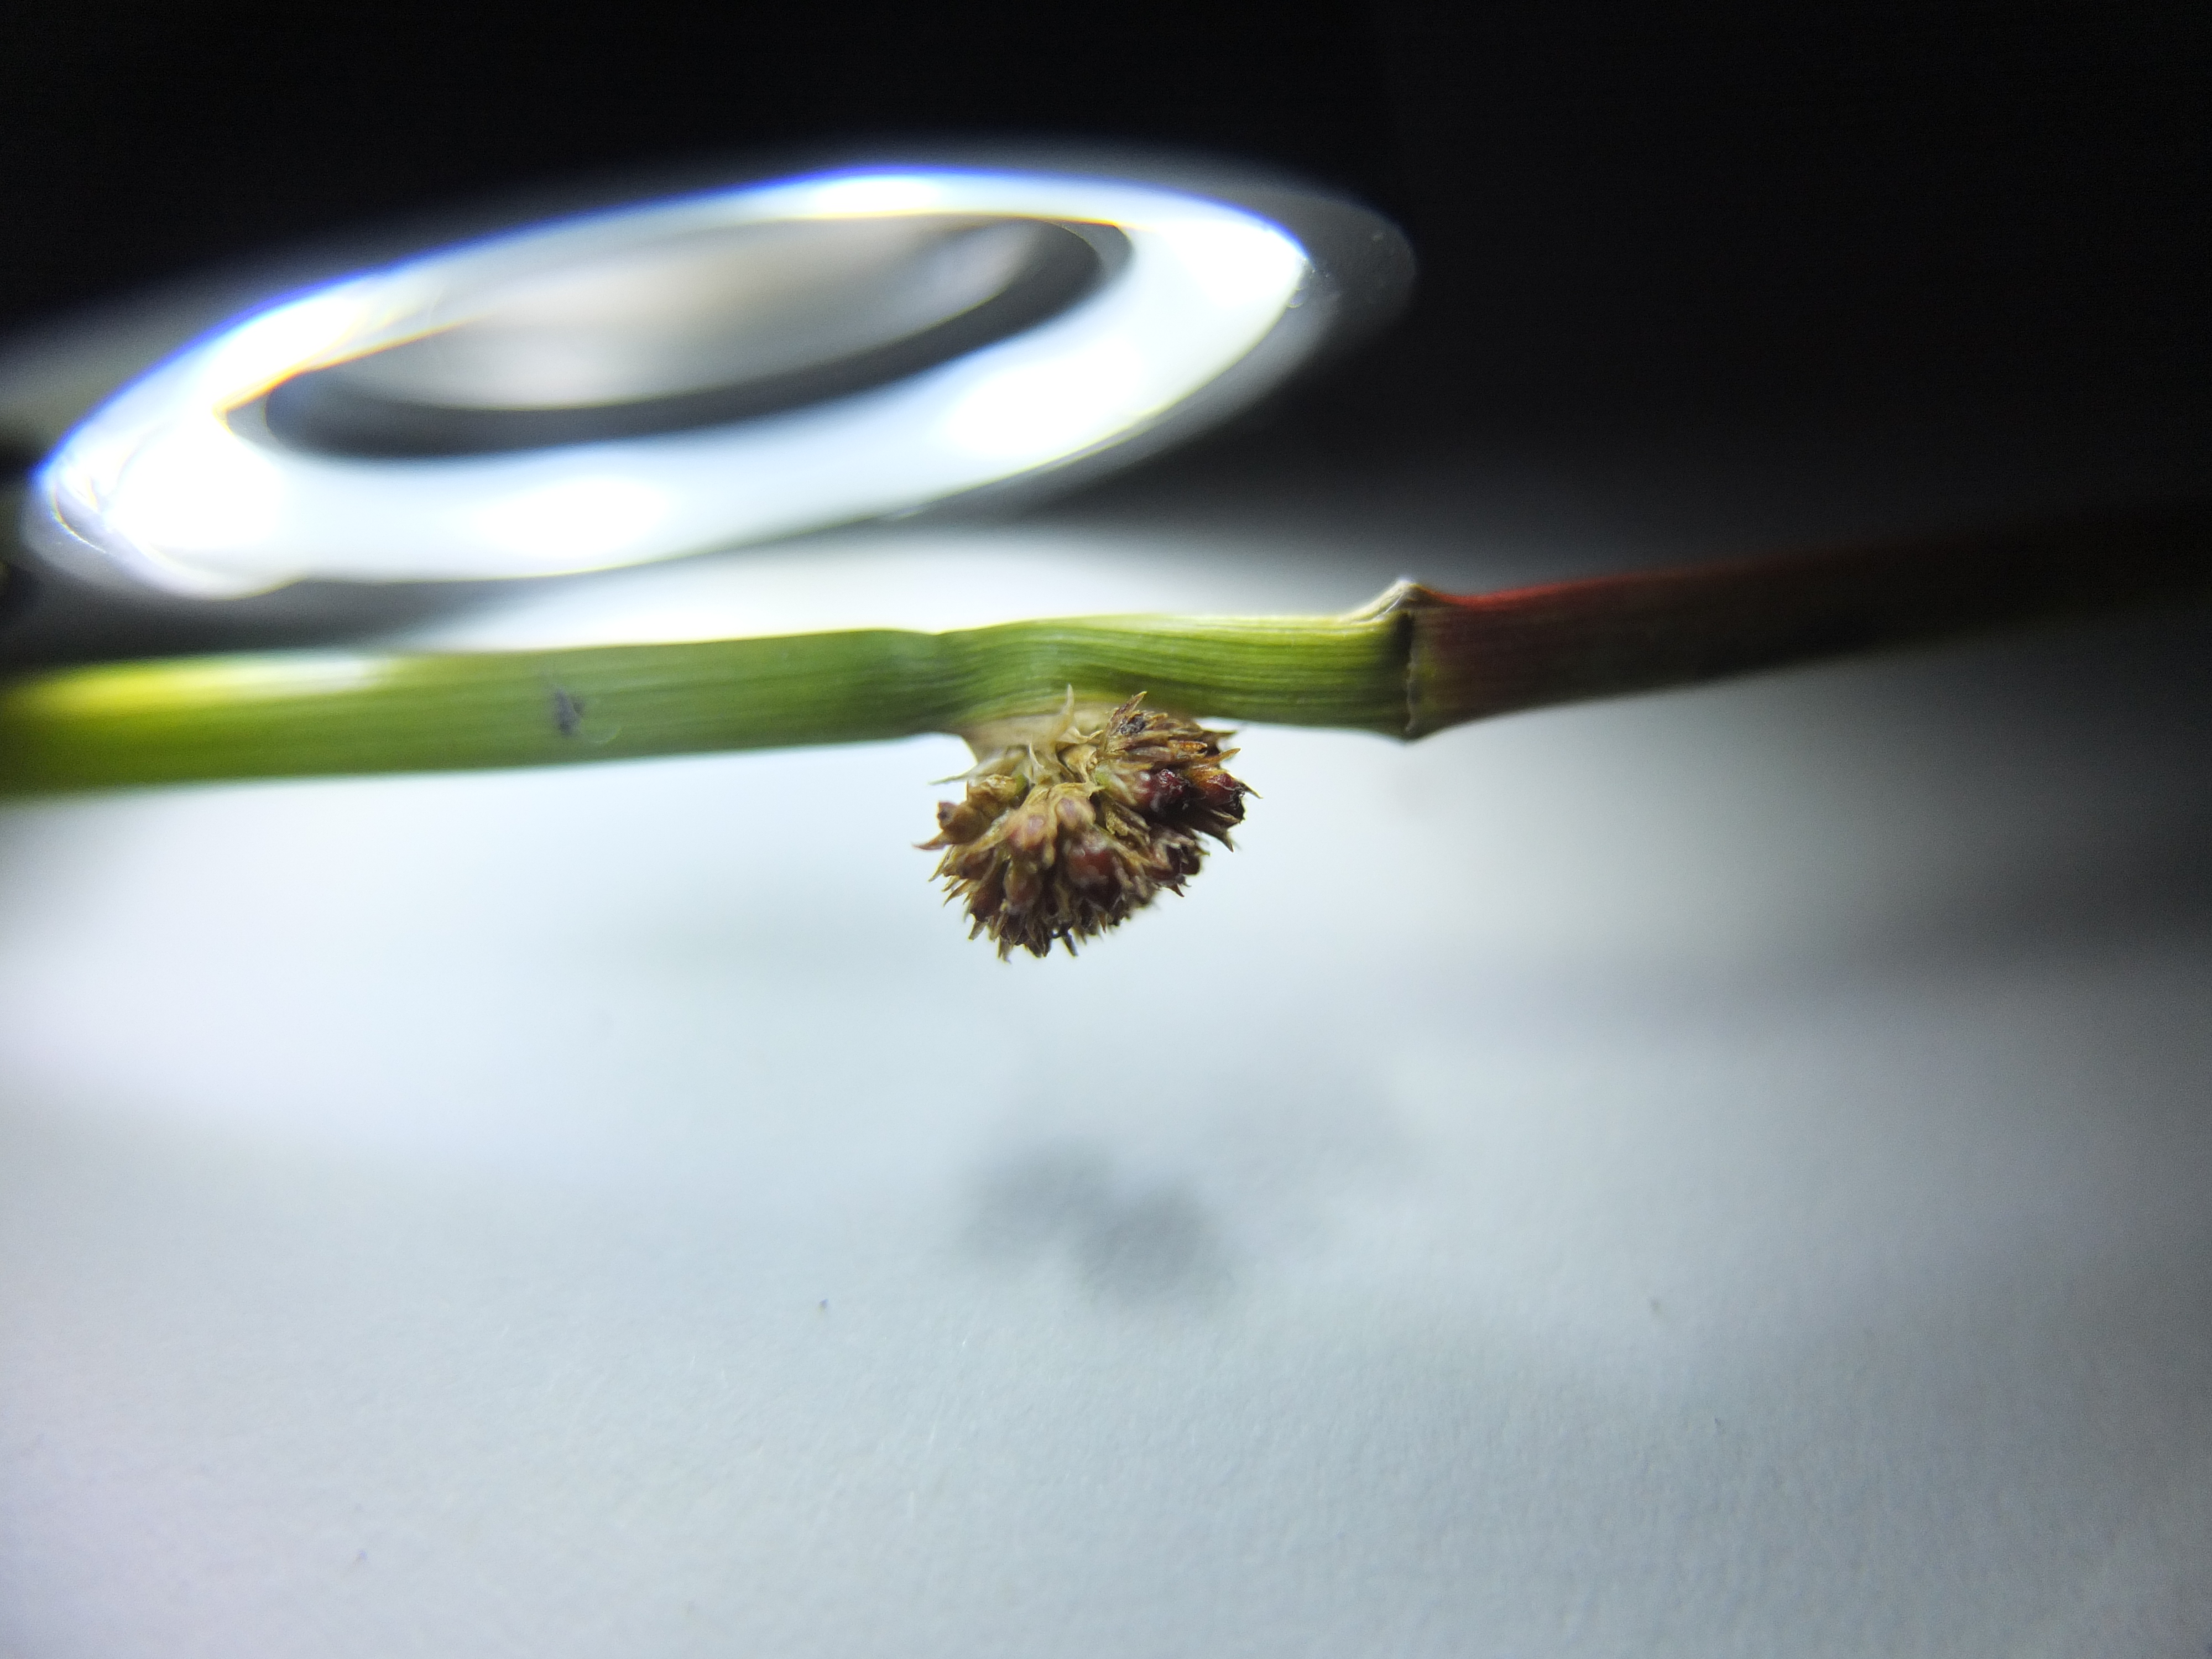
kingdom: Plantae
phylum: Tracheophyta
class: Liliopsida
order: Poales
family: Juncaceae
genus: Juncus
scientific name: Juncus conglomeratus
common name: Knop-siv
